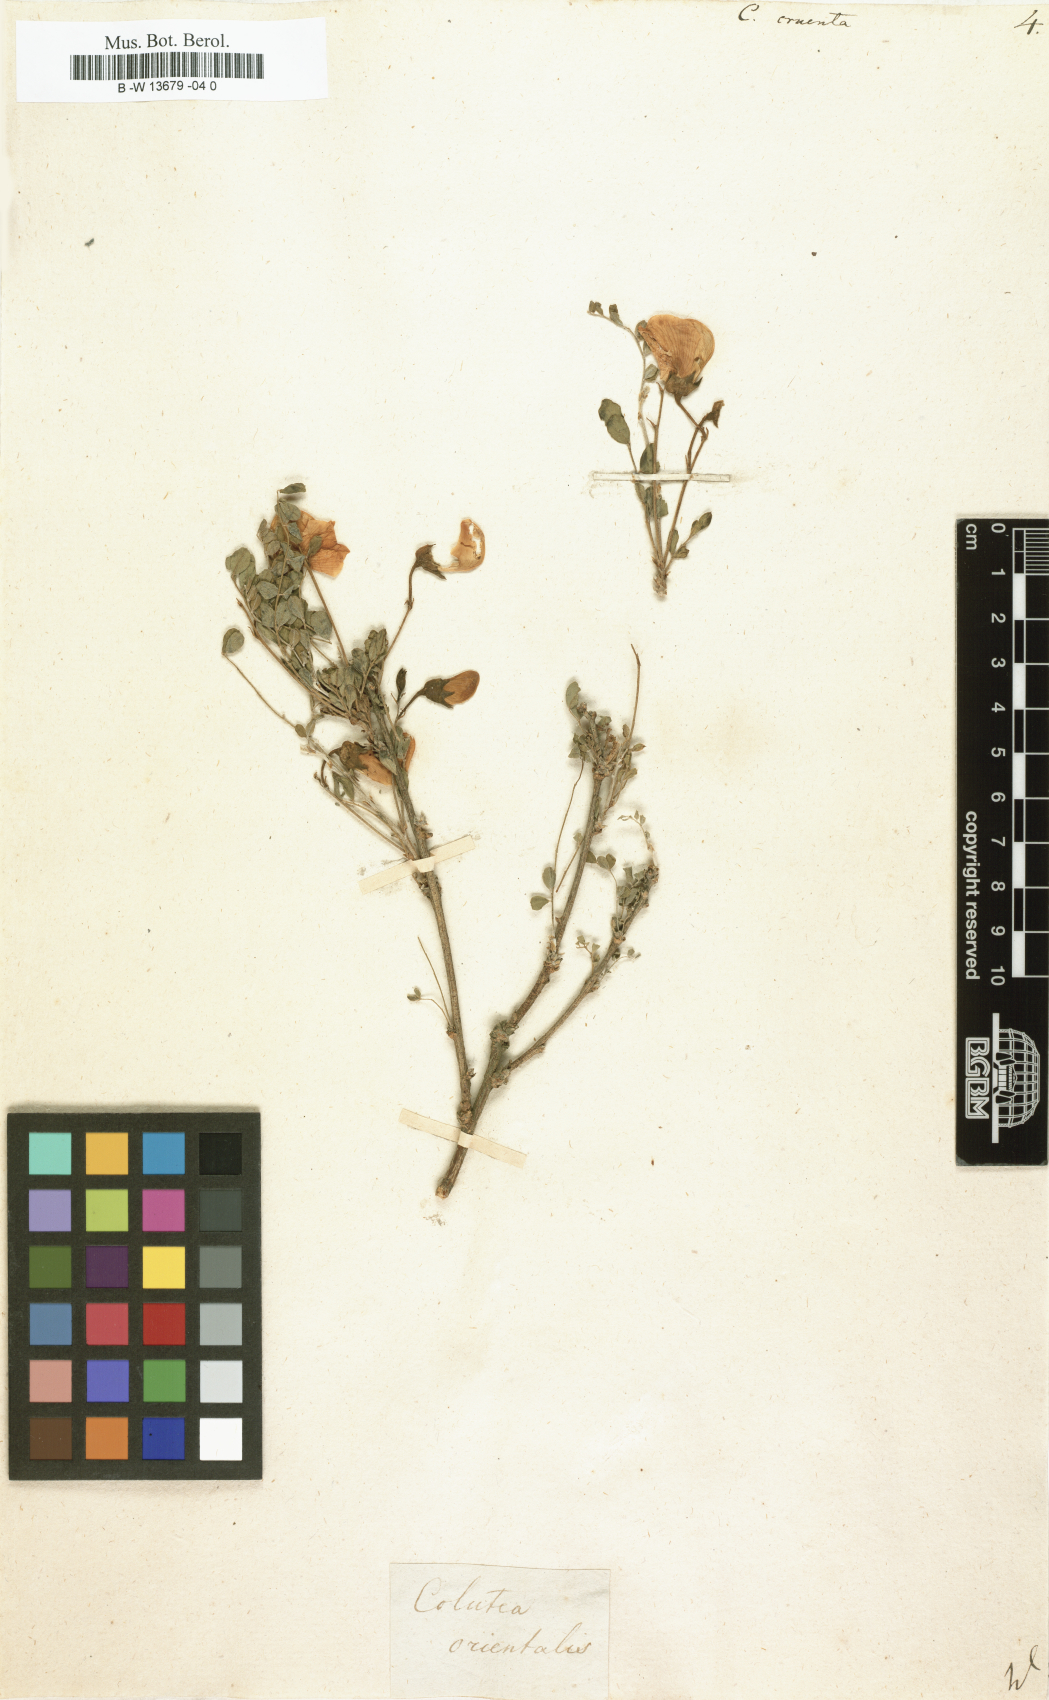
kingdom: Plantae
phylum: Tracheophyta
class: Magnoliopsida
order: Fabales
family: Fabaceae
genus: Colutea
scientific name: Colutea orientalis
